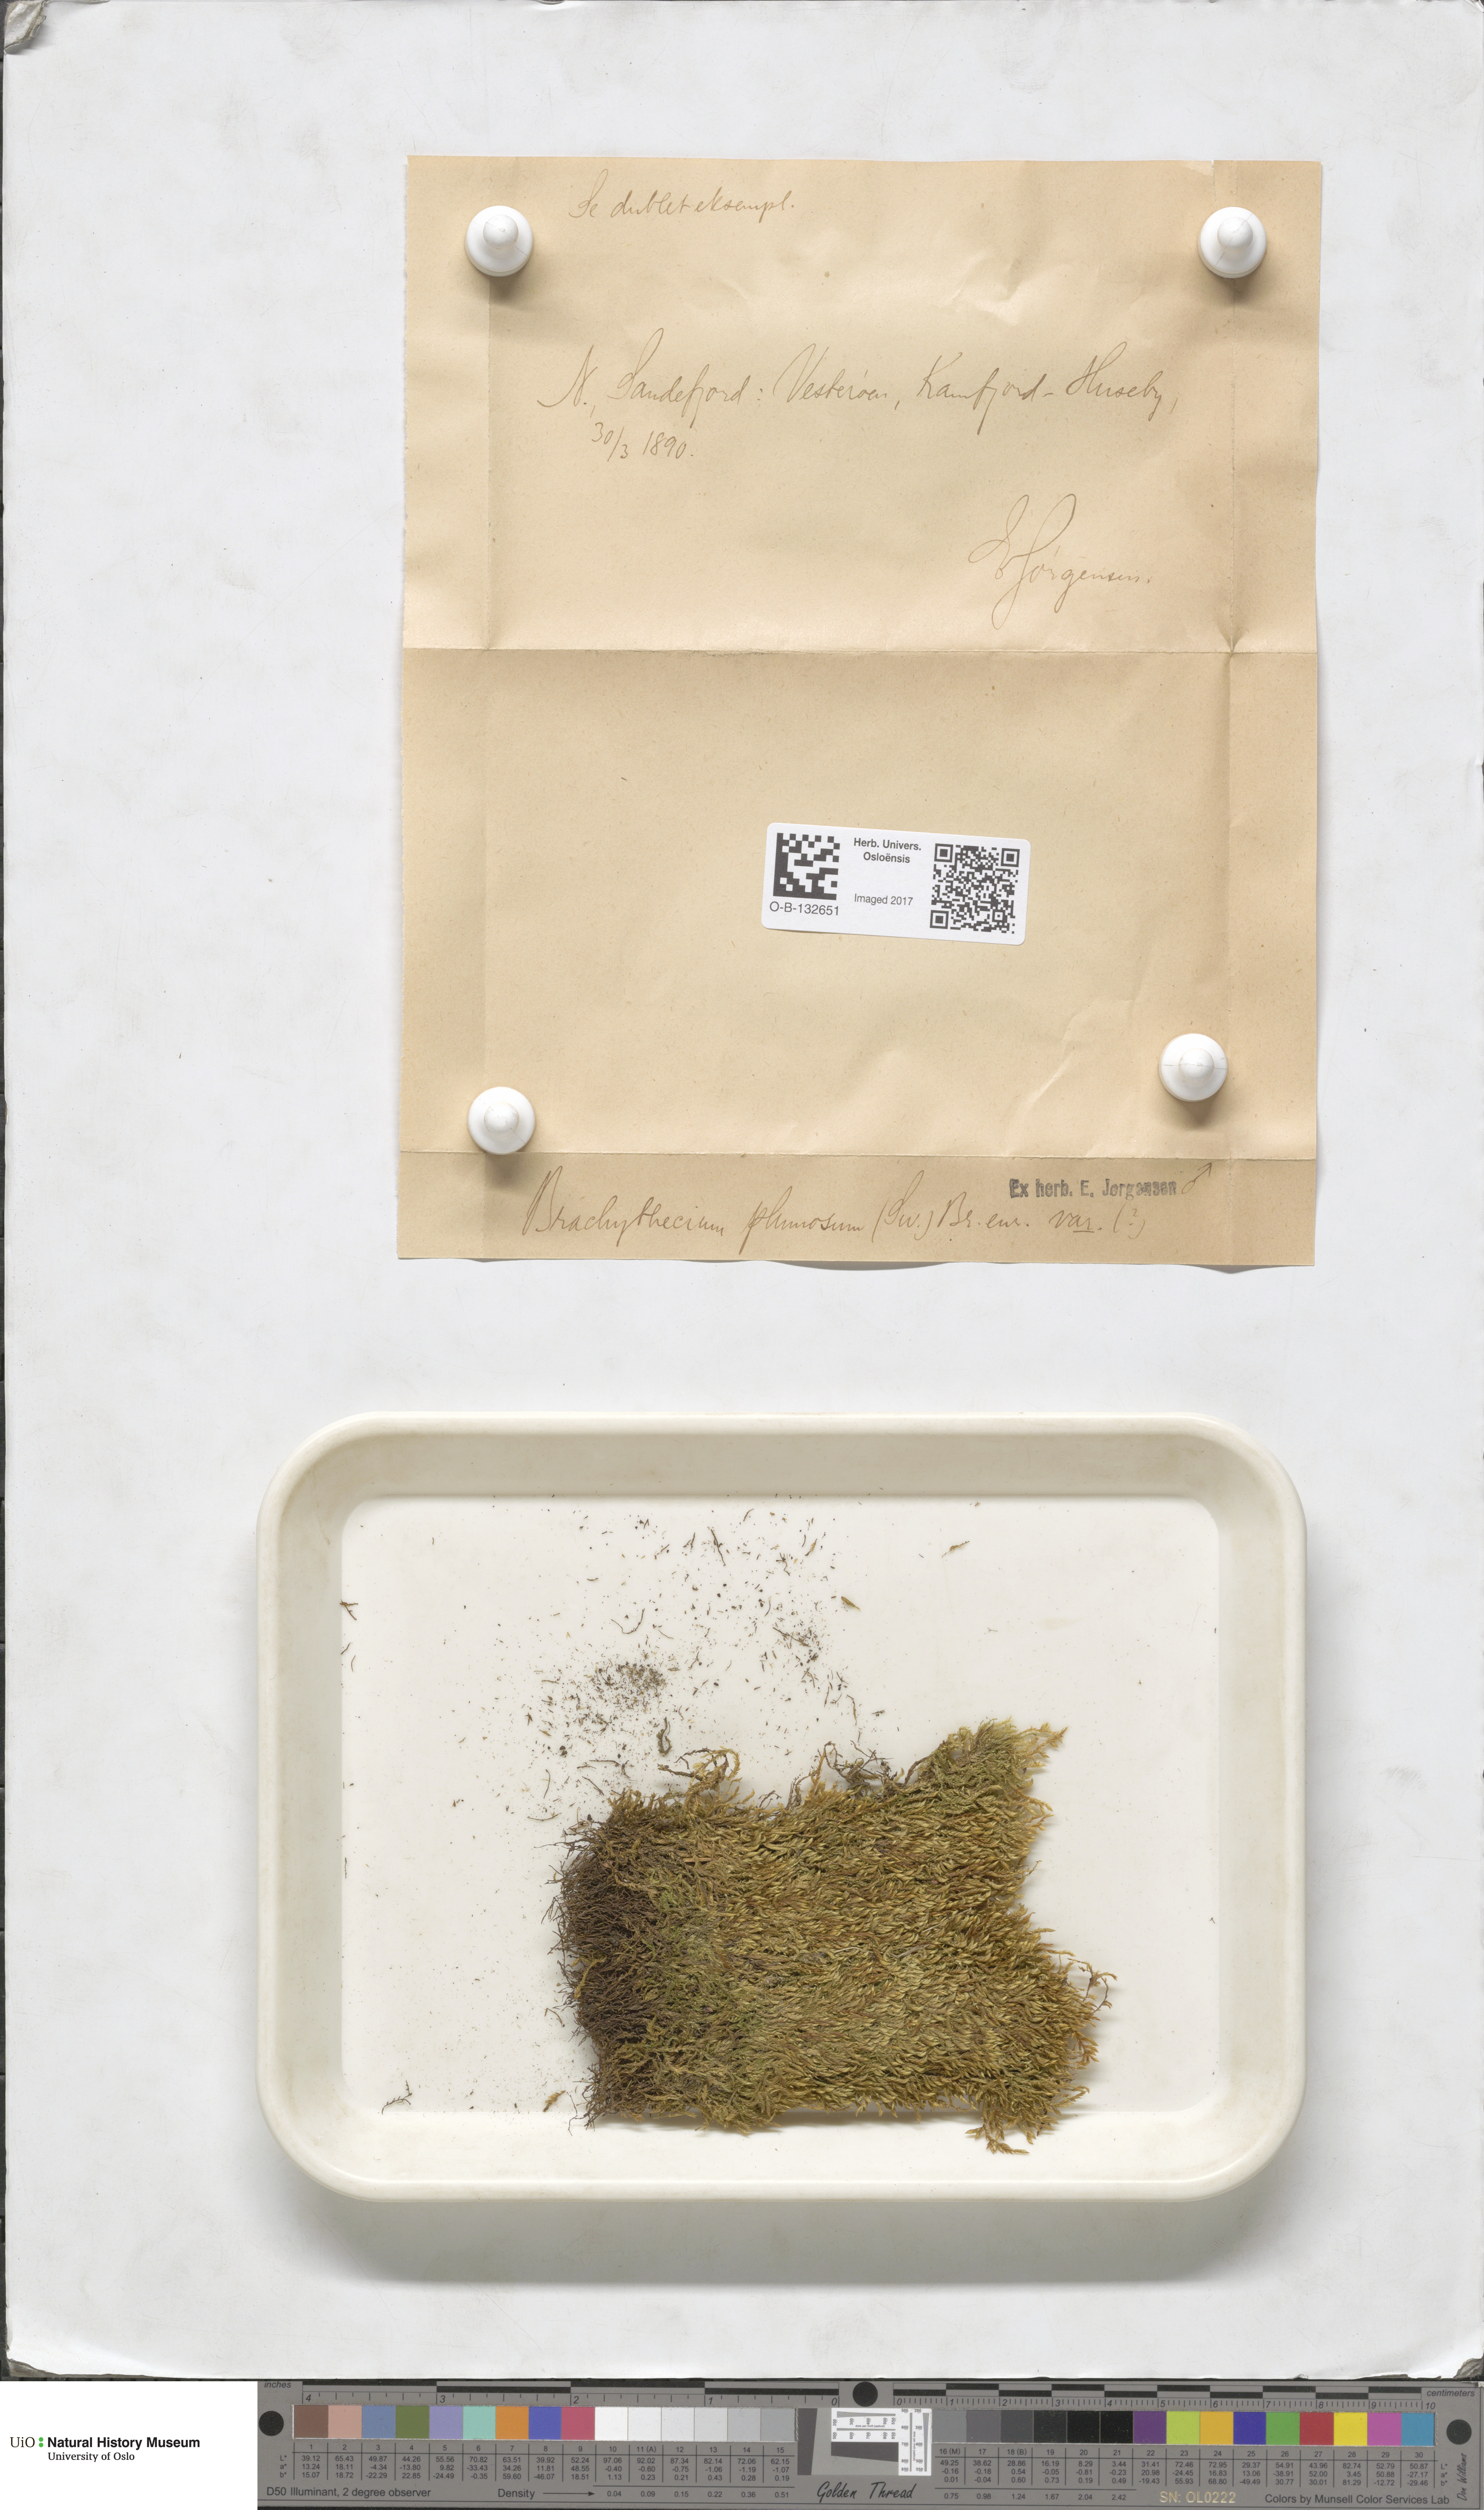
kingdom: Plantae
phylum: Bryophyta
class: Bryopsida
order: Hypnales
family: Brachytheciaceae
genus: Sciuro-hypnum
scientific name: Sciuro-hypnum plumosum
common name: Rusty feather-moss
